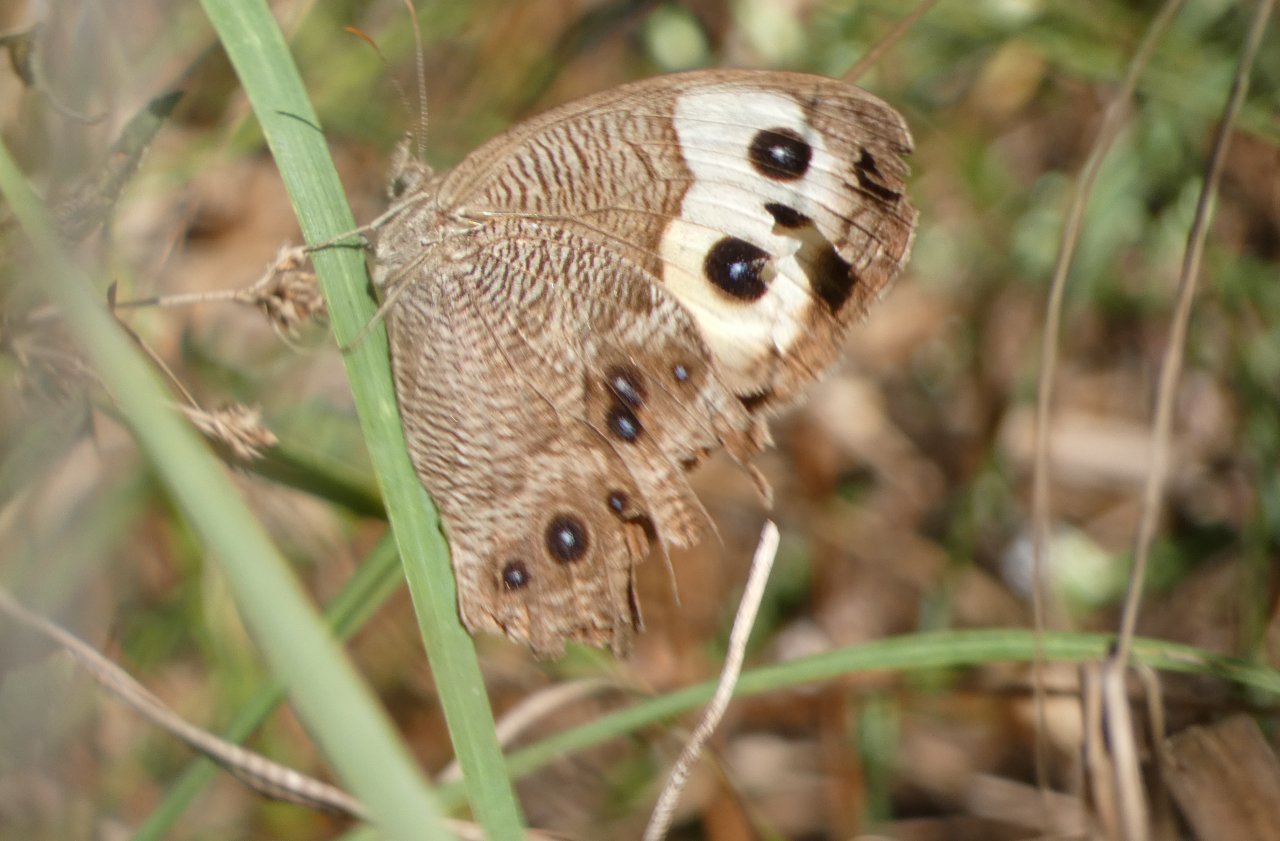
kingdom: Animalia
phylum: Arthropoda
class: Insecta
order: Lepidoptera
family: Nymphalidae
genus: Cercyonis
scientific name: Cercyonis pegala
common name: Common Wood-Nymph
